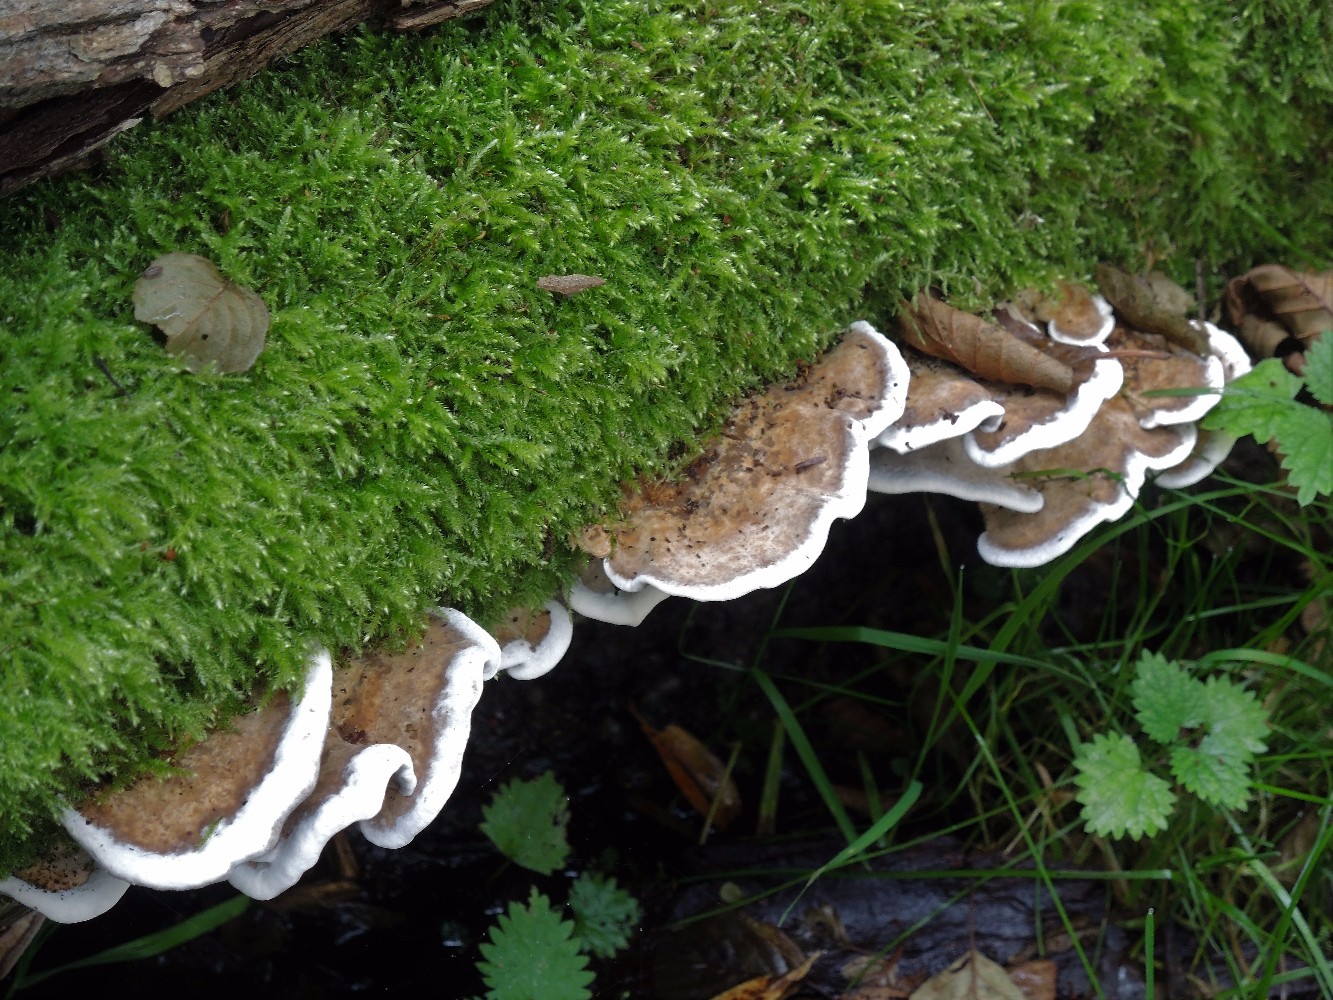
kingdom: Fungi
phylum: Basidiomycota
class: Agaricomycetes
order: Polyporales
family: Phanerochaetaceae
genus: Bjerkandera
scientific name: Bjerkandera fumosa
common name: grågul sodporesvamp
